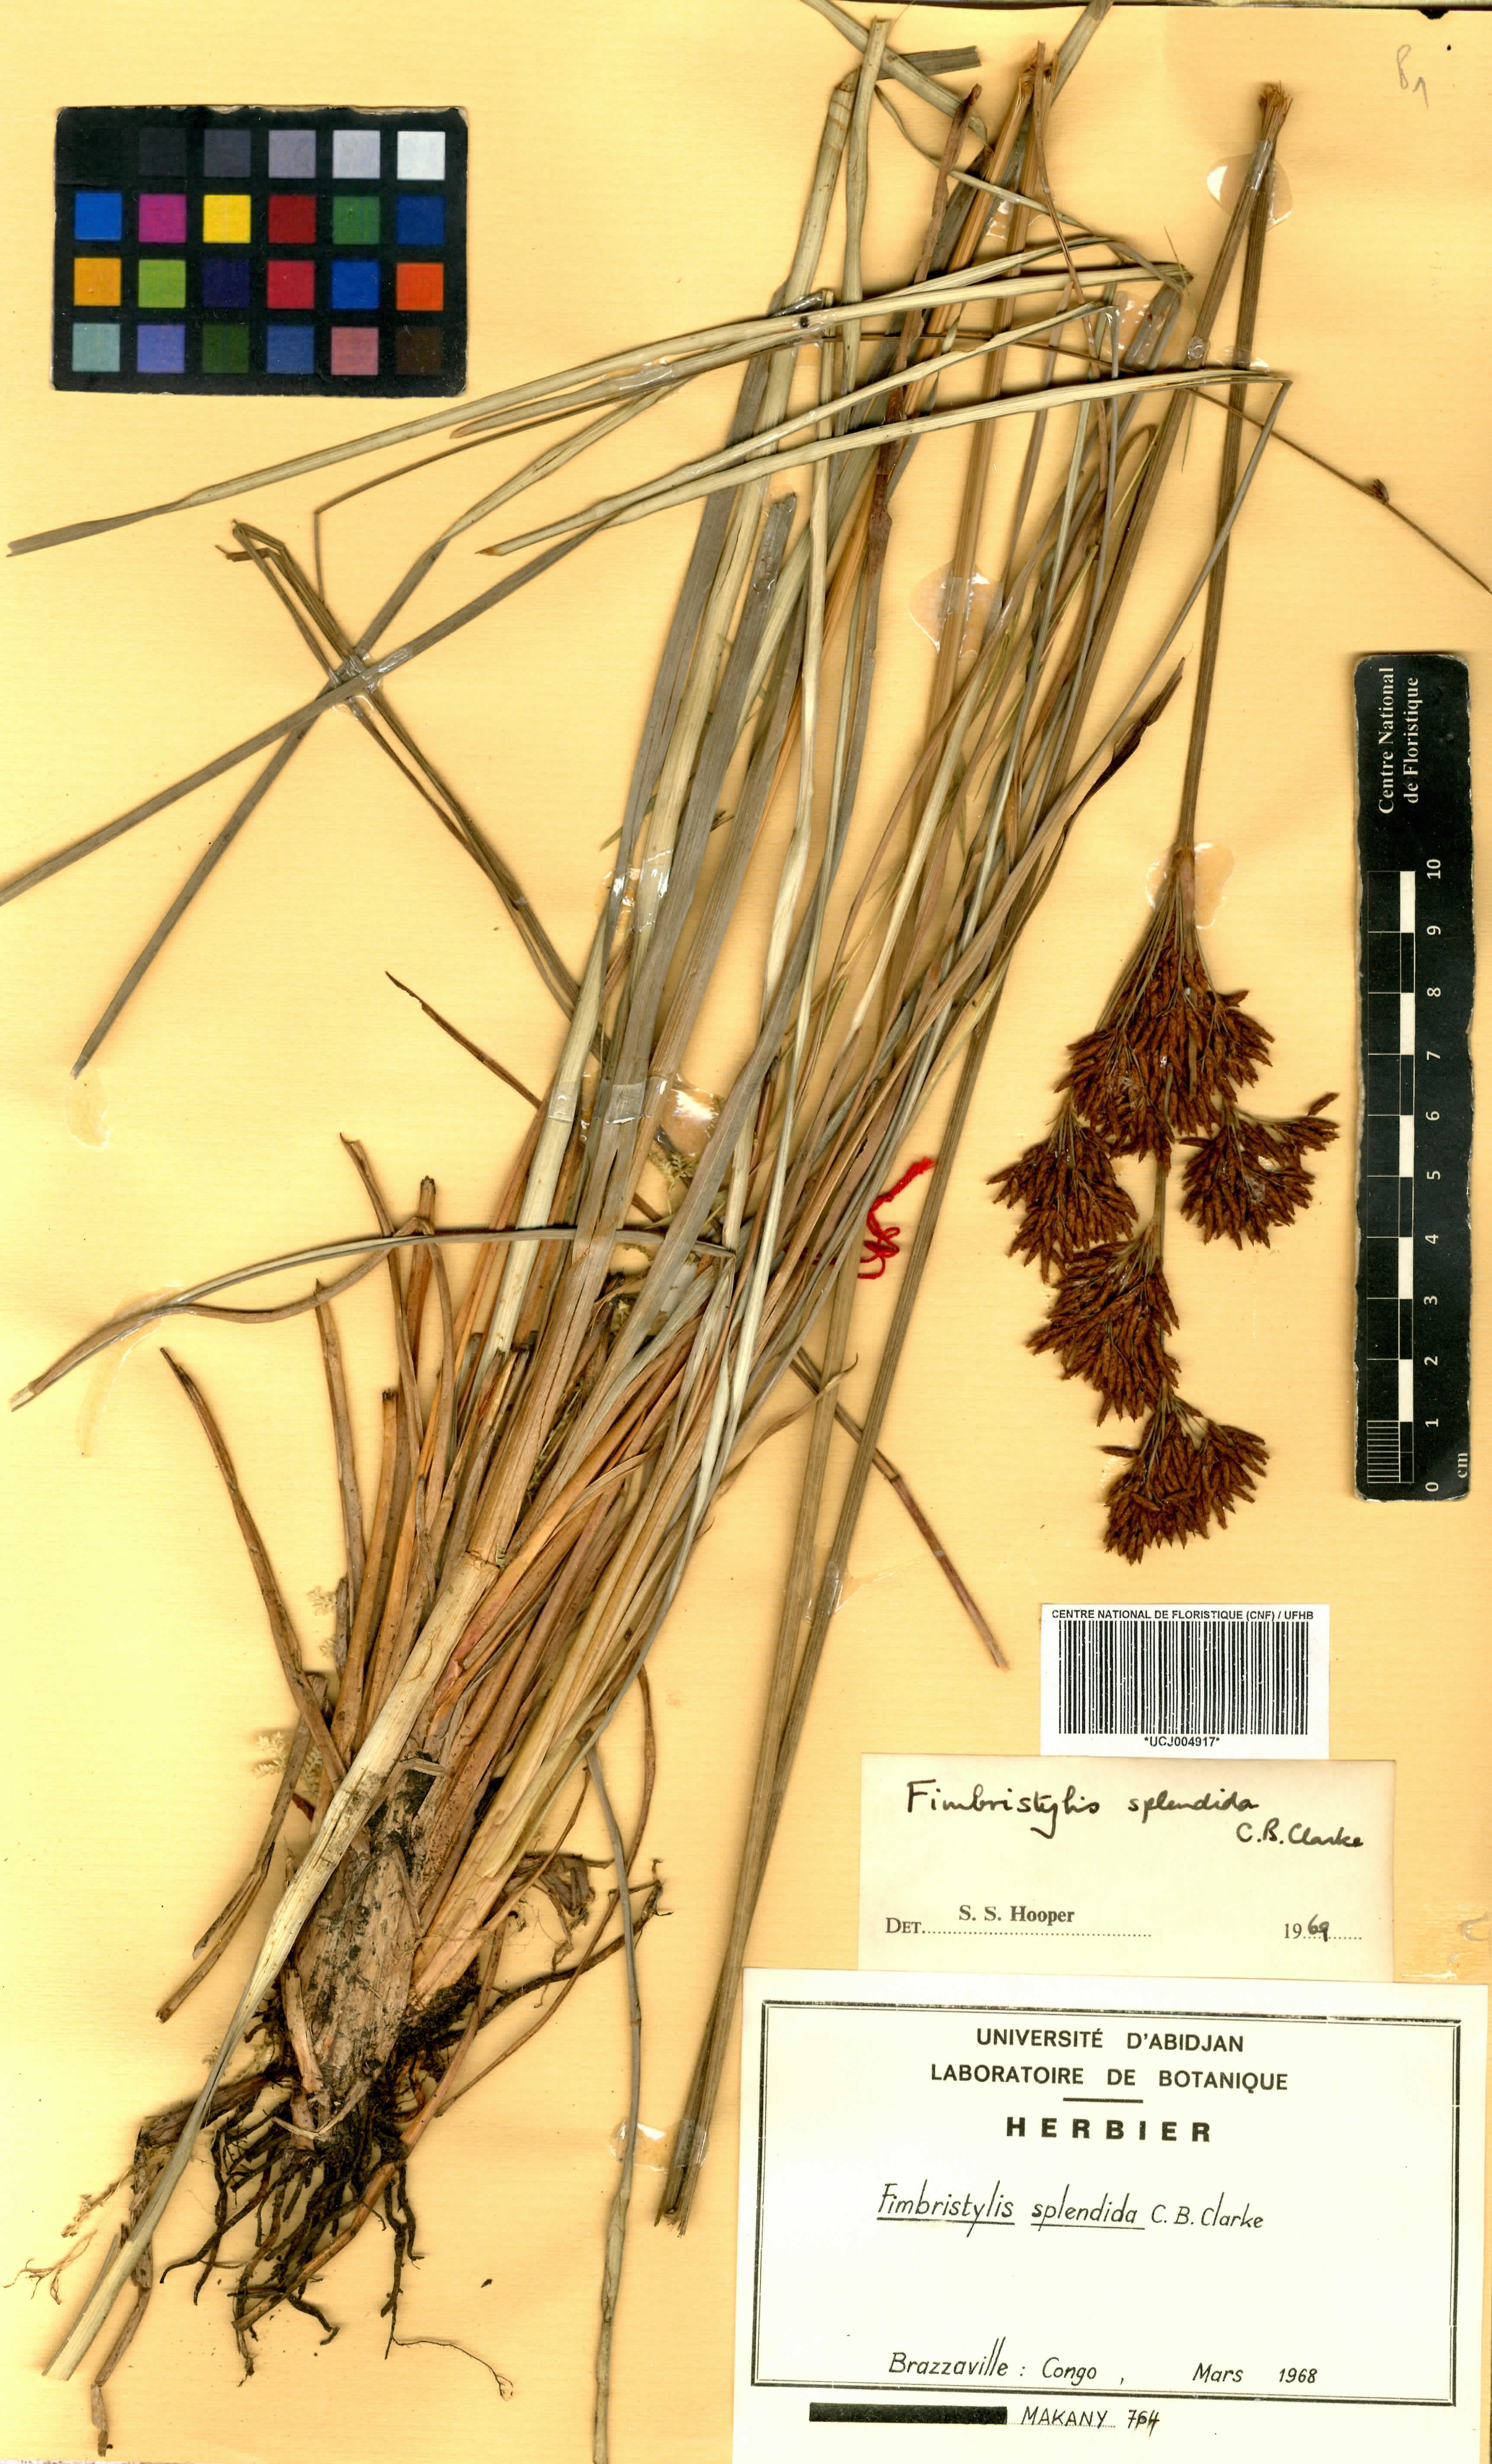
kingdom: Plantae
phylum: Tracheophyta
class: Liliopsida
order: Poales
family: Cyperaceae
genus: Fimbristylis
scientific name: Fimbristylis splendida
